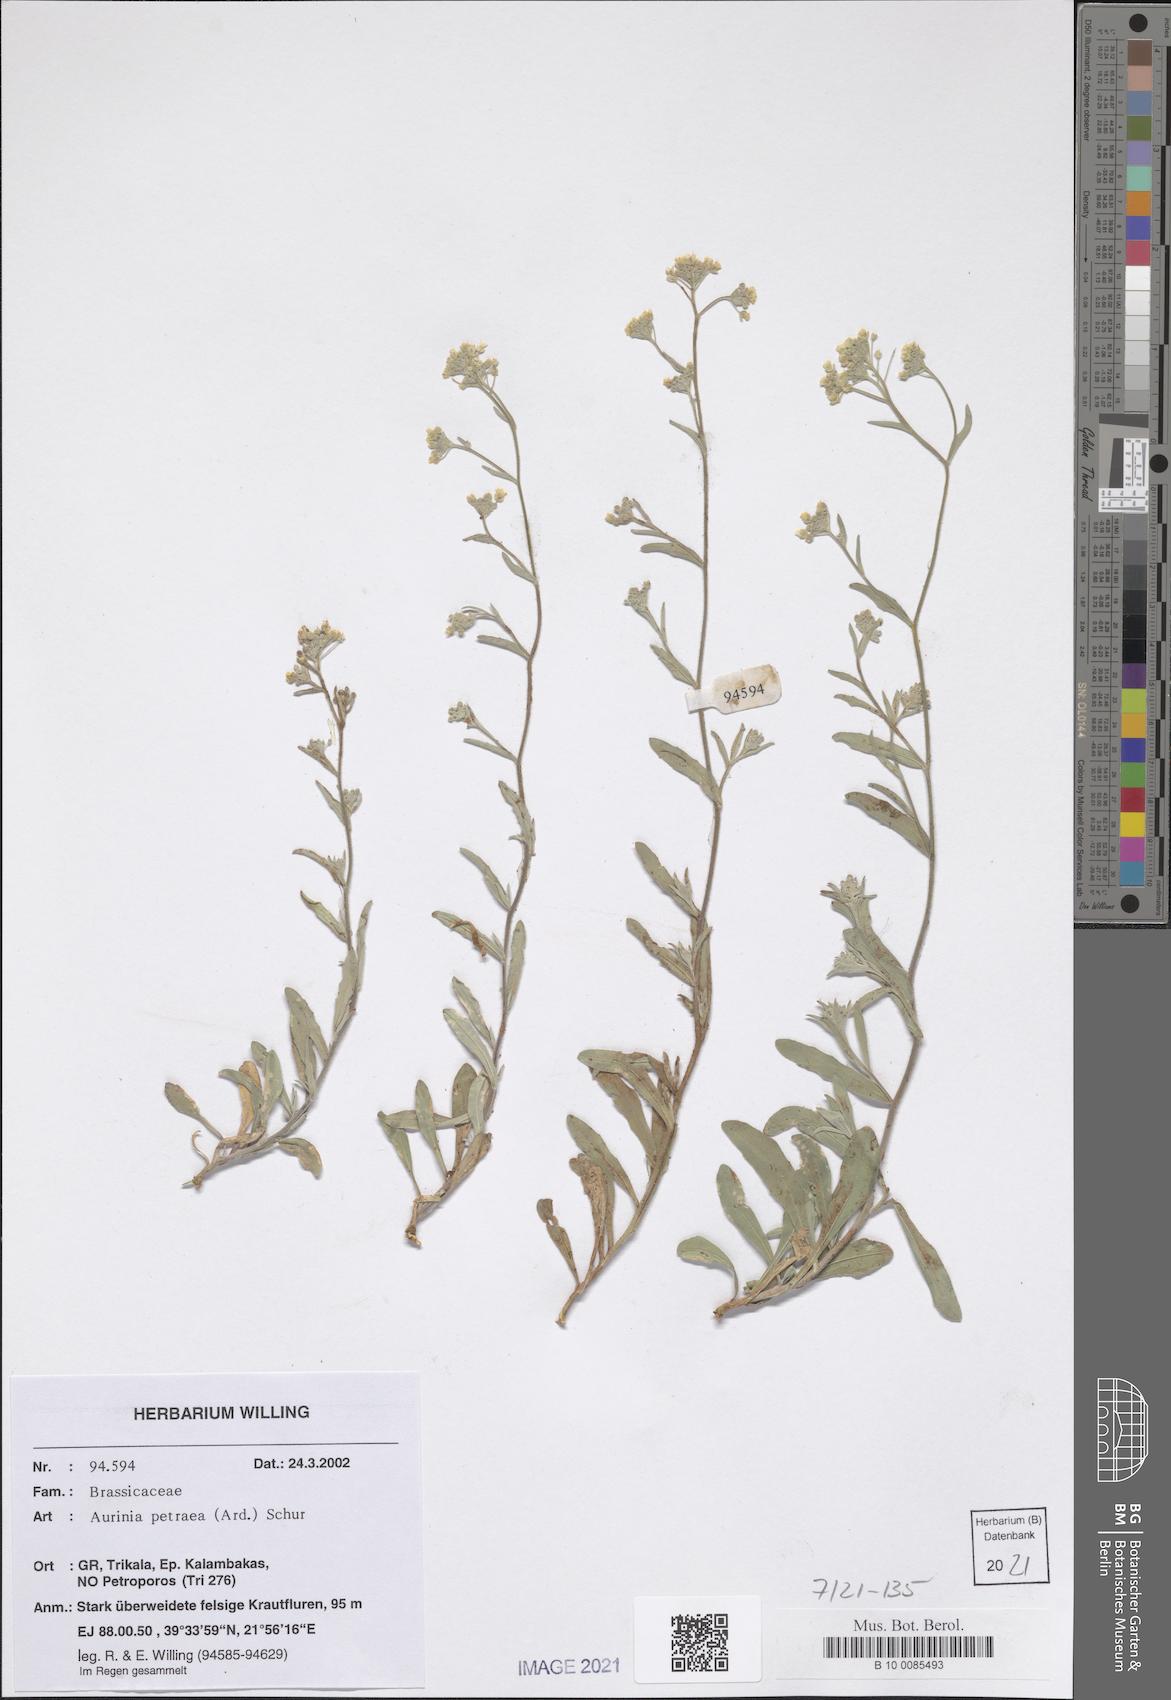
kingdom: Plantae
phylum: Tracheophyta
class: Magnoliopsida
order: Brassicales
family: Brassicaceae
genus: Aurinia
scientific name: Aurinia petraea
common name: Goldentuft
